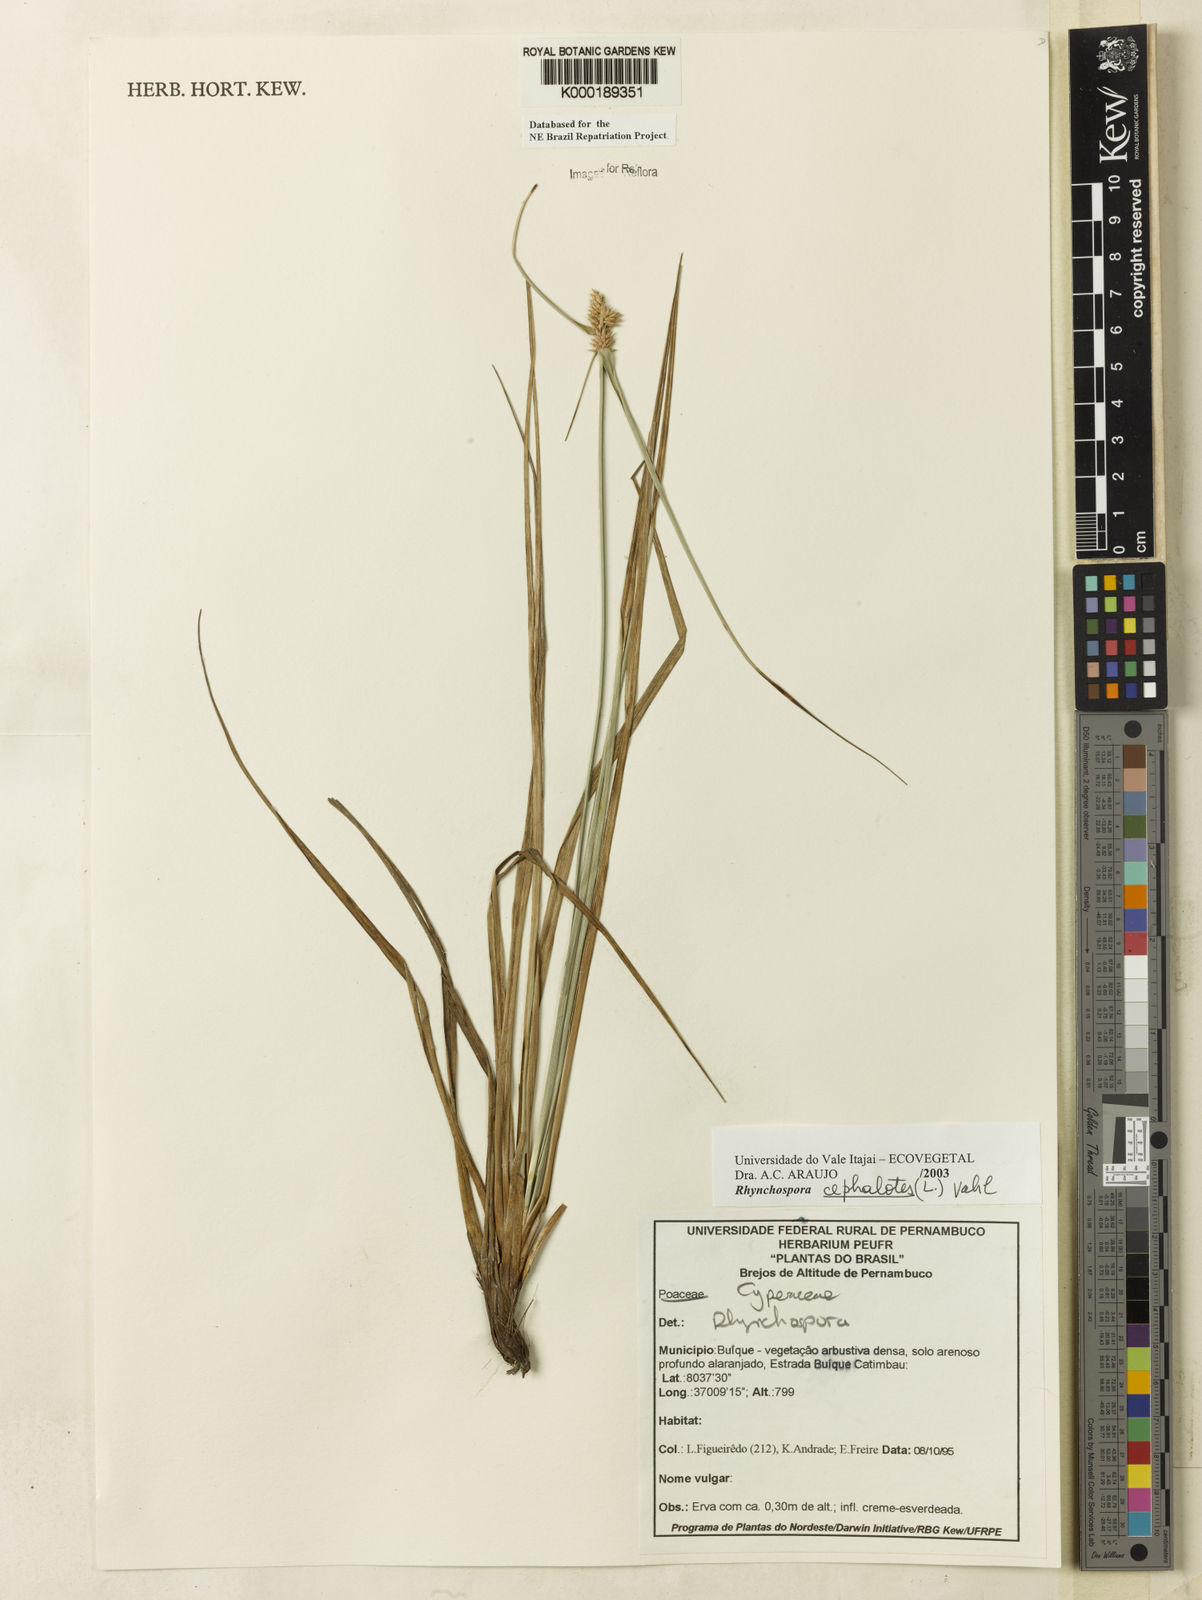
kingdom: Plantae
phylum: Tracheophyta
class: Liliopsida
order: Poales
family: Cyperaceae
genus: Rhynchospora
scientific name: Rhynchospora cephalotes
